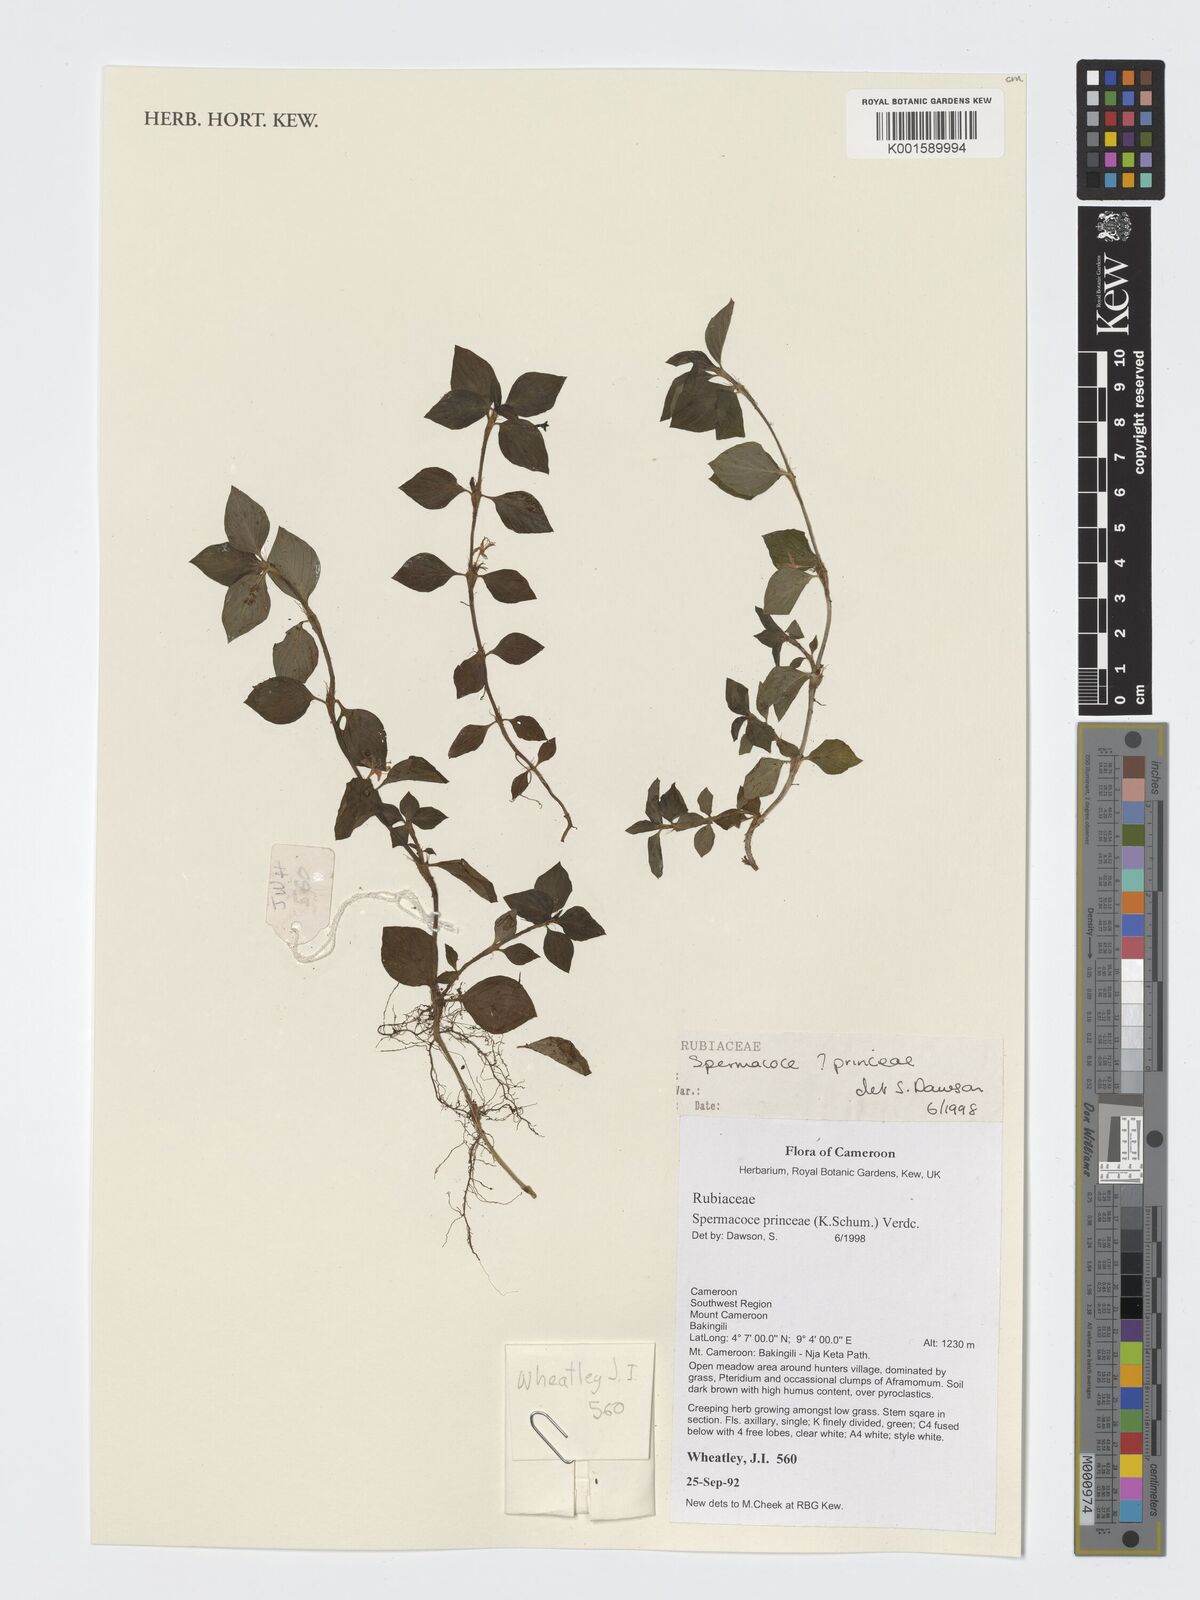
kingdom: Plantae
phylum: Tracheophyta
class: Magnoliopsida
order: Gentianales
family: Rubiaceae
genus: Spermacoce
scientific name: Spermacoce princeae
